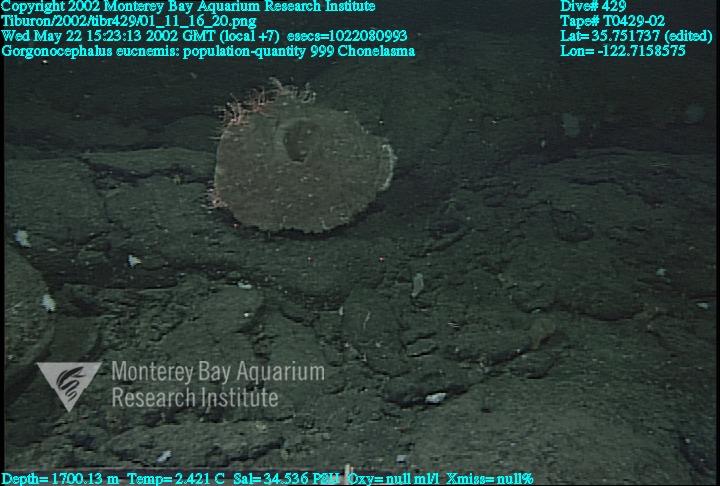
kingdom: Animalia
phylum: Porifera
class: Hexactinellida
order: Sceptrulophora
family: Euretidae
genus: Chonelasma
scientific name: Chonelasma
